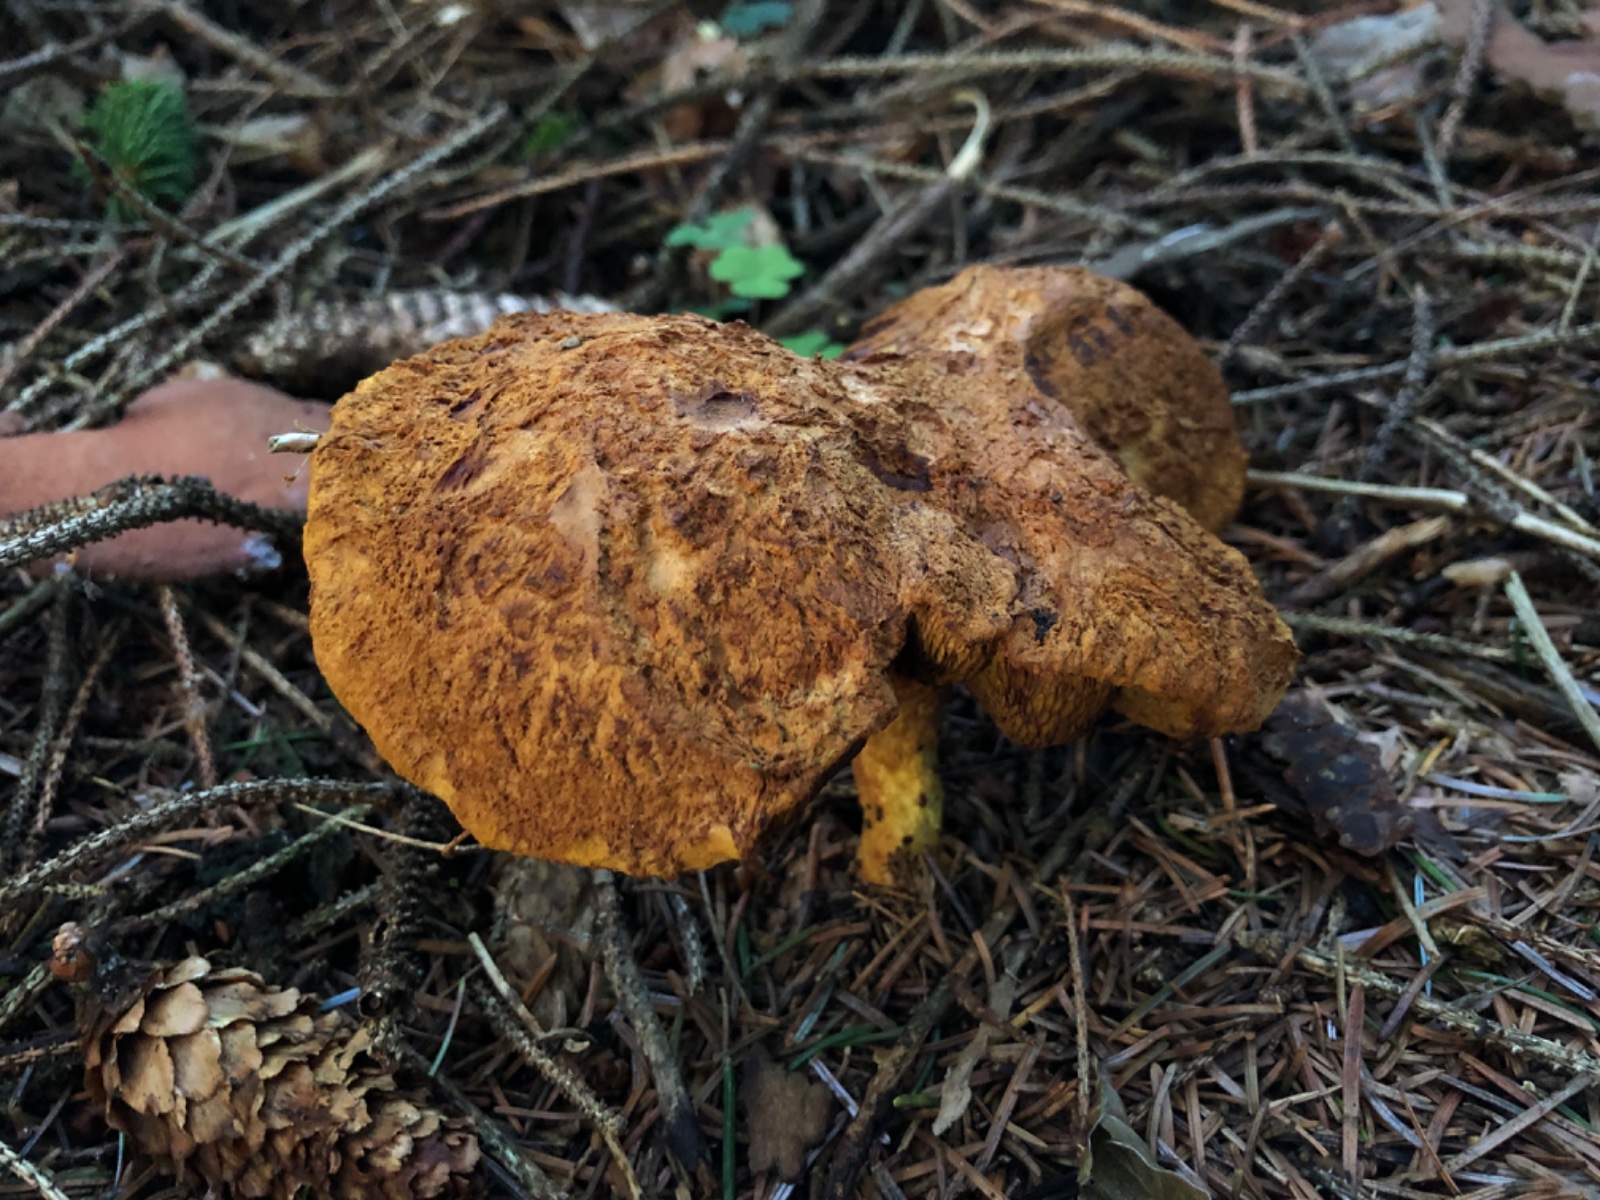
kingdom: Fungi
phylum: Basidiomycota
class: Agaricomycetes
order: Boletales
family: Boletaceae
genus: Buchwaldoboletus
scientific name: Buchwaldoboletus lignicola
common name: stødrørhat
